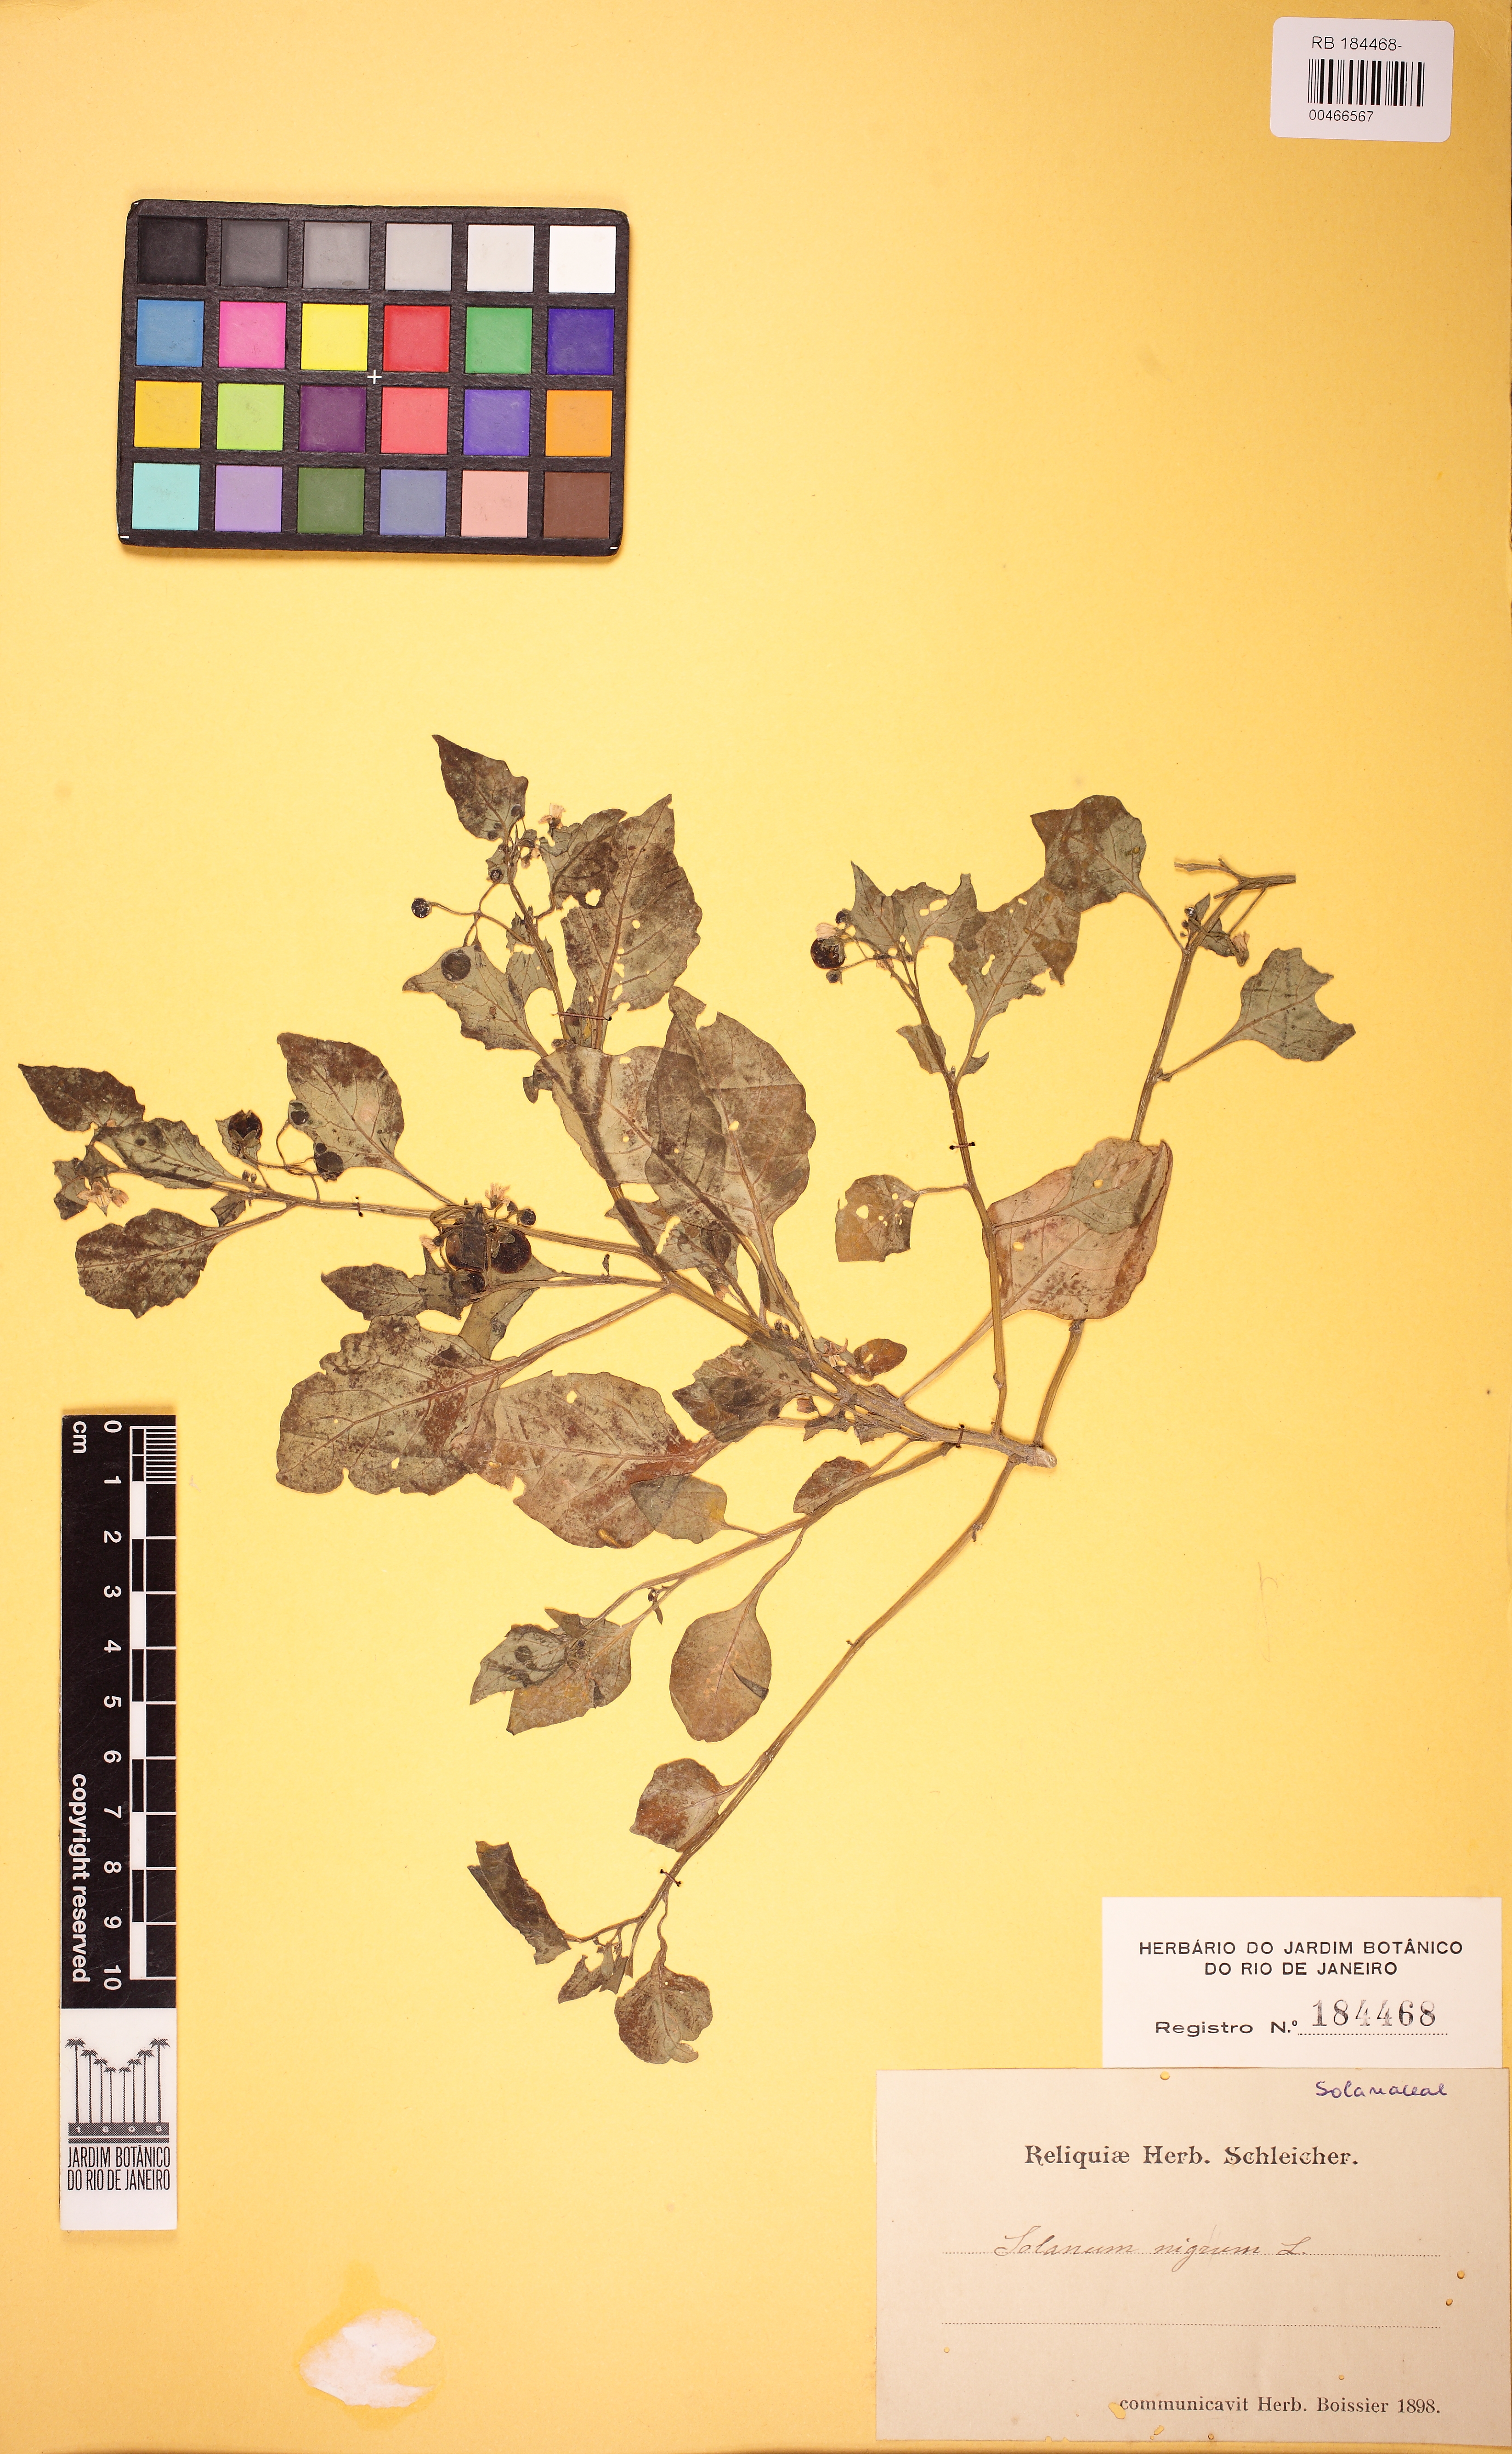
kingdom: Plantae
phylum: Tracheophyta
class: Magnoliopsida
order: Solanales
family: Solanaceae
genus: Solanum
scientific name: Solanum nigrum
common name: Black nightshade
